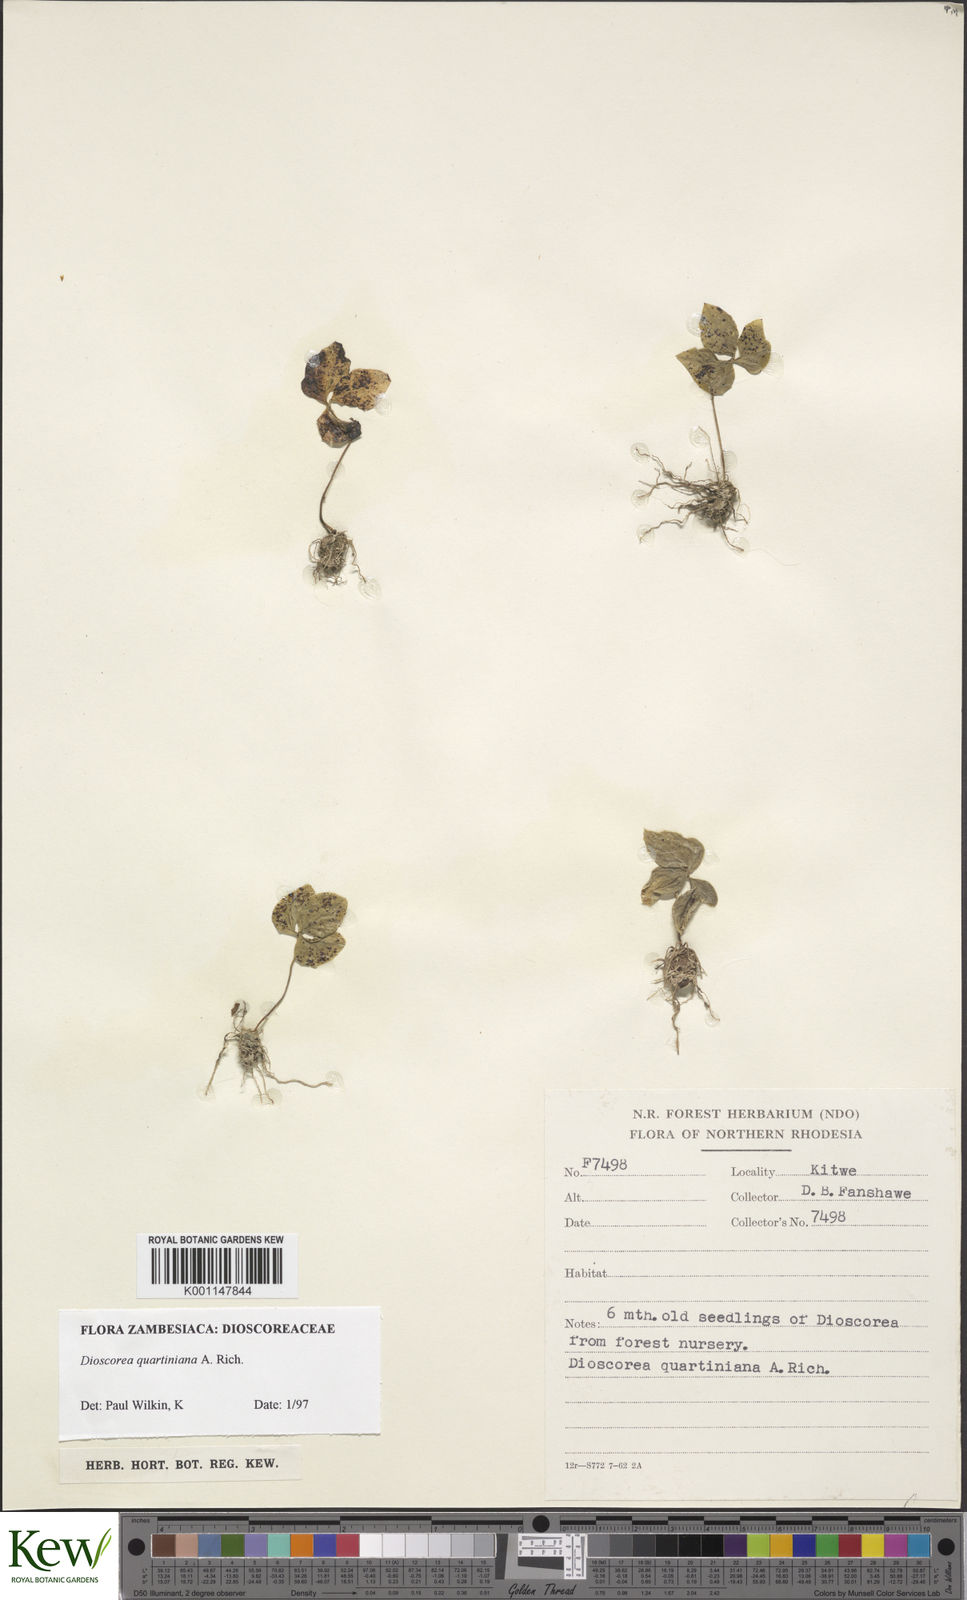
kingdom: Plantae
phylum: Tracheophyta
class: Liliopsida
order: Dioscoreales
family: Dioscoreaceae
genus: Dioscorea
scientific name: Dioscorea quartiniana
